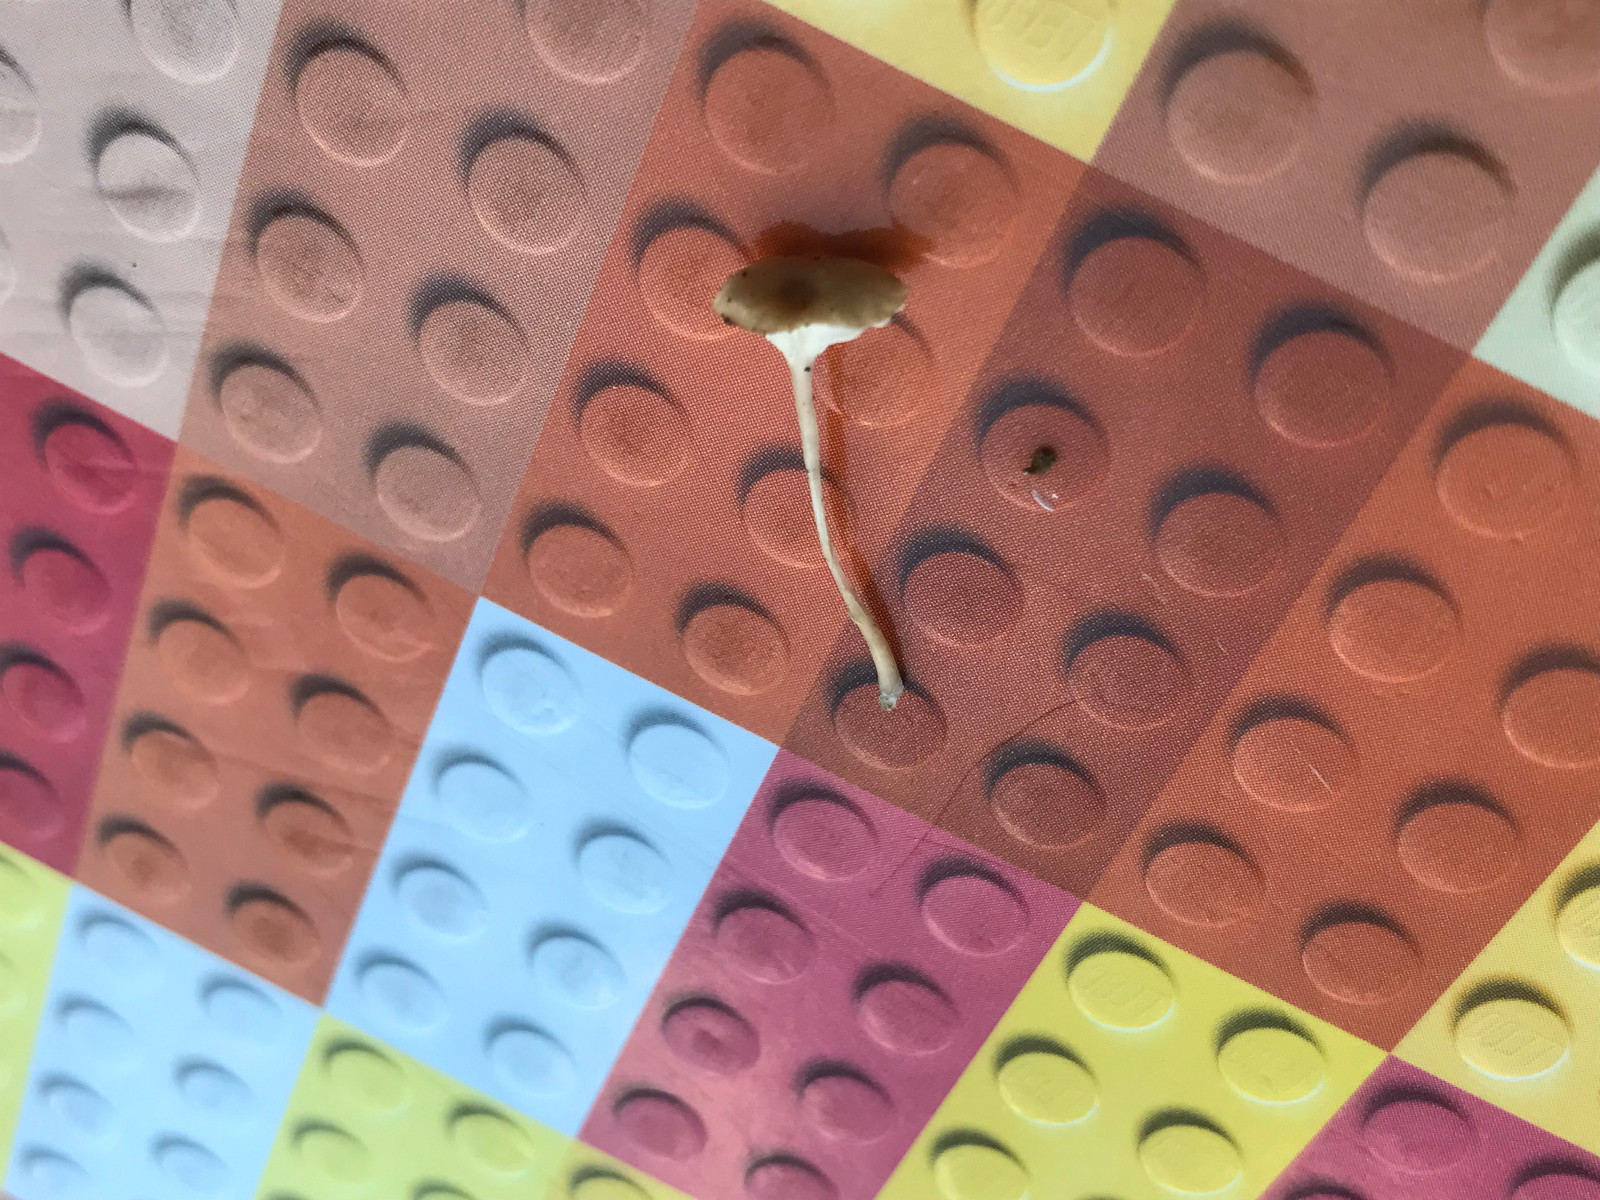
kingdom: Fungi
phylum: Basidiomycota
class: Agaricomycetes
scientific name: Agaricomycetes
